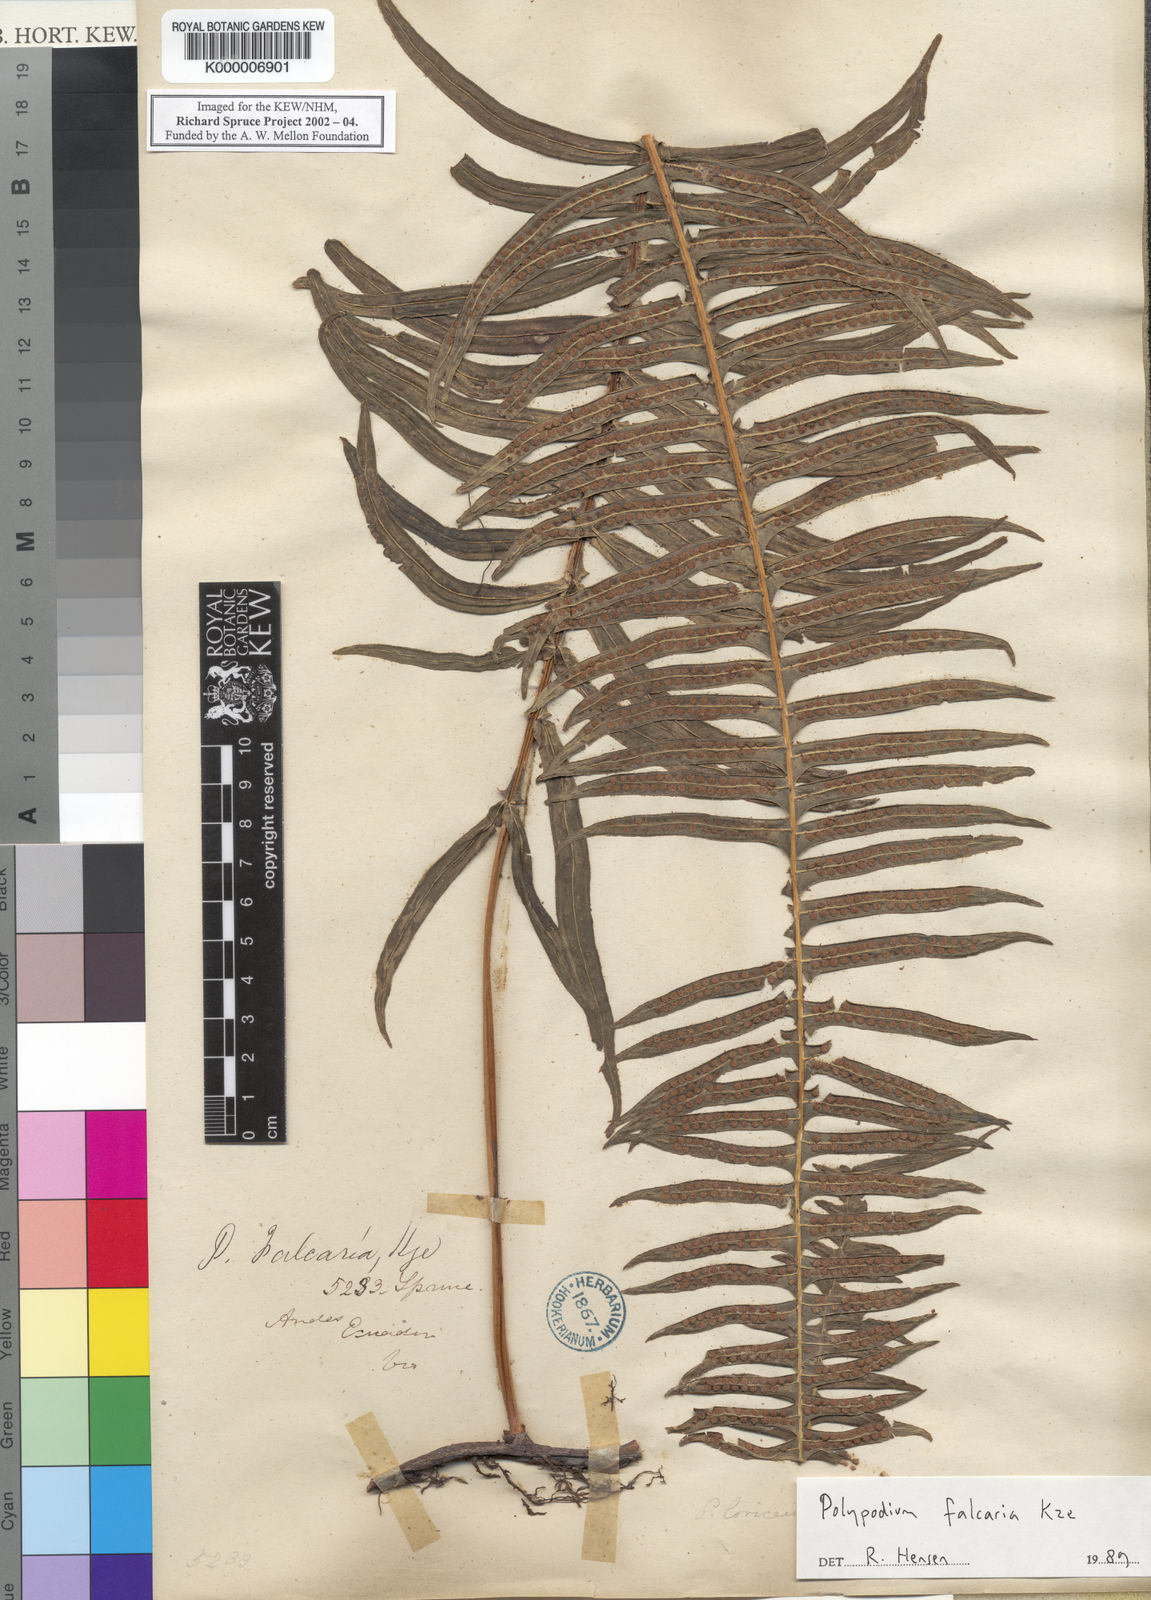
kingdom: Plantae
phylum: Tracheophyta
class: Polypodiopsida
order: Polypodiales
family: Polypodiaceae
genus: Serpocaulon
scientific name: Serpocaulon falcaria
